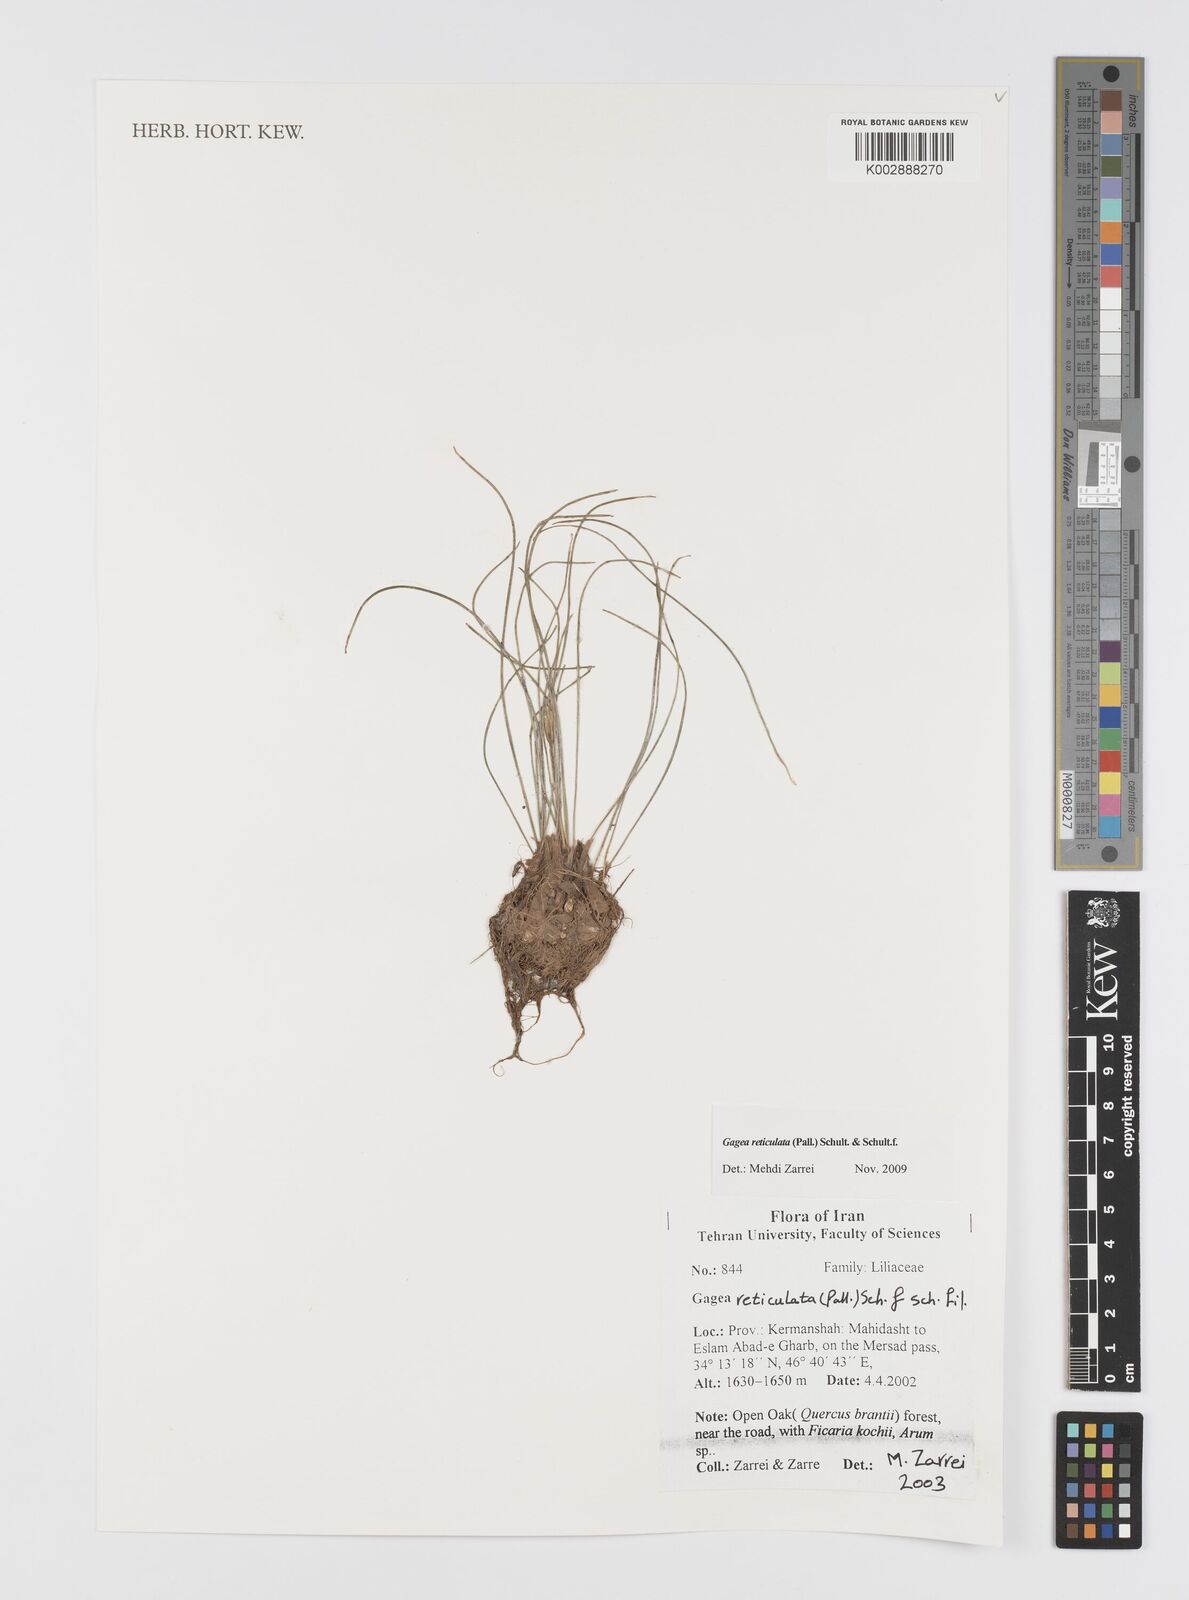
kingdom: Plantae
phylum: Tracheophyta
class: Liliopsida
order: Liliales
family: Liliaceae
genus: Gagea
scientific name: Gagea reticulata
